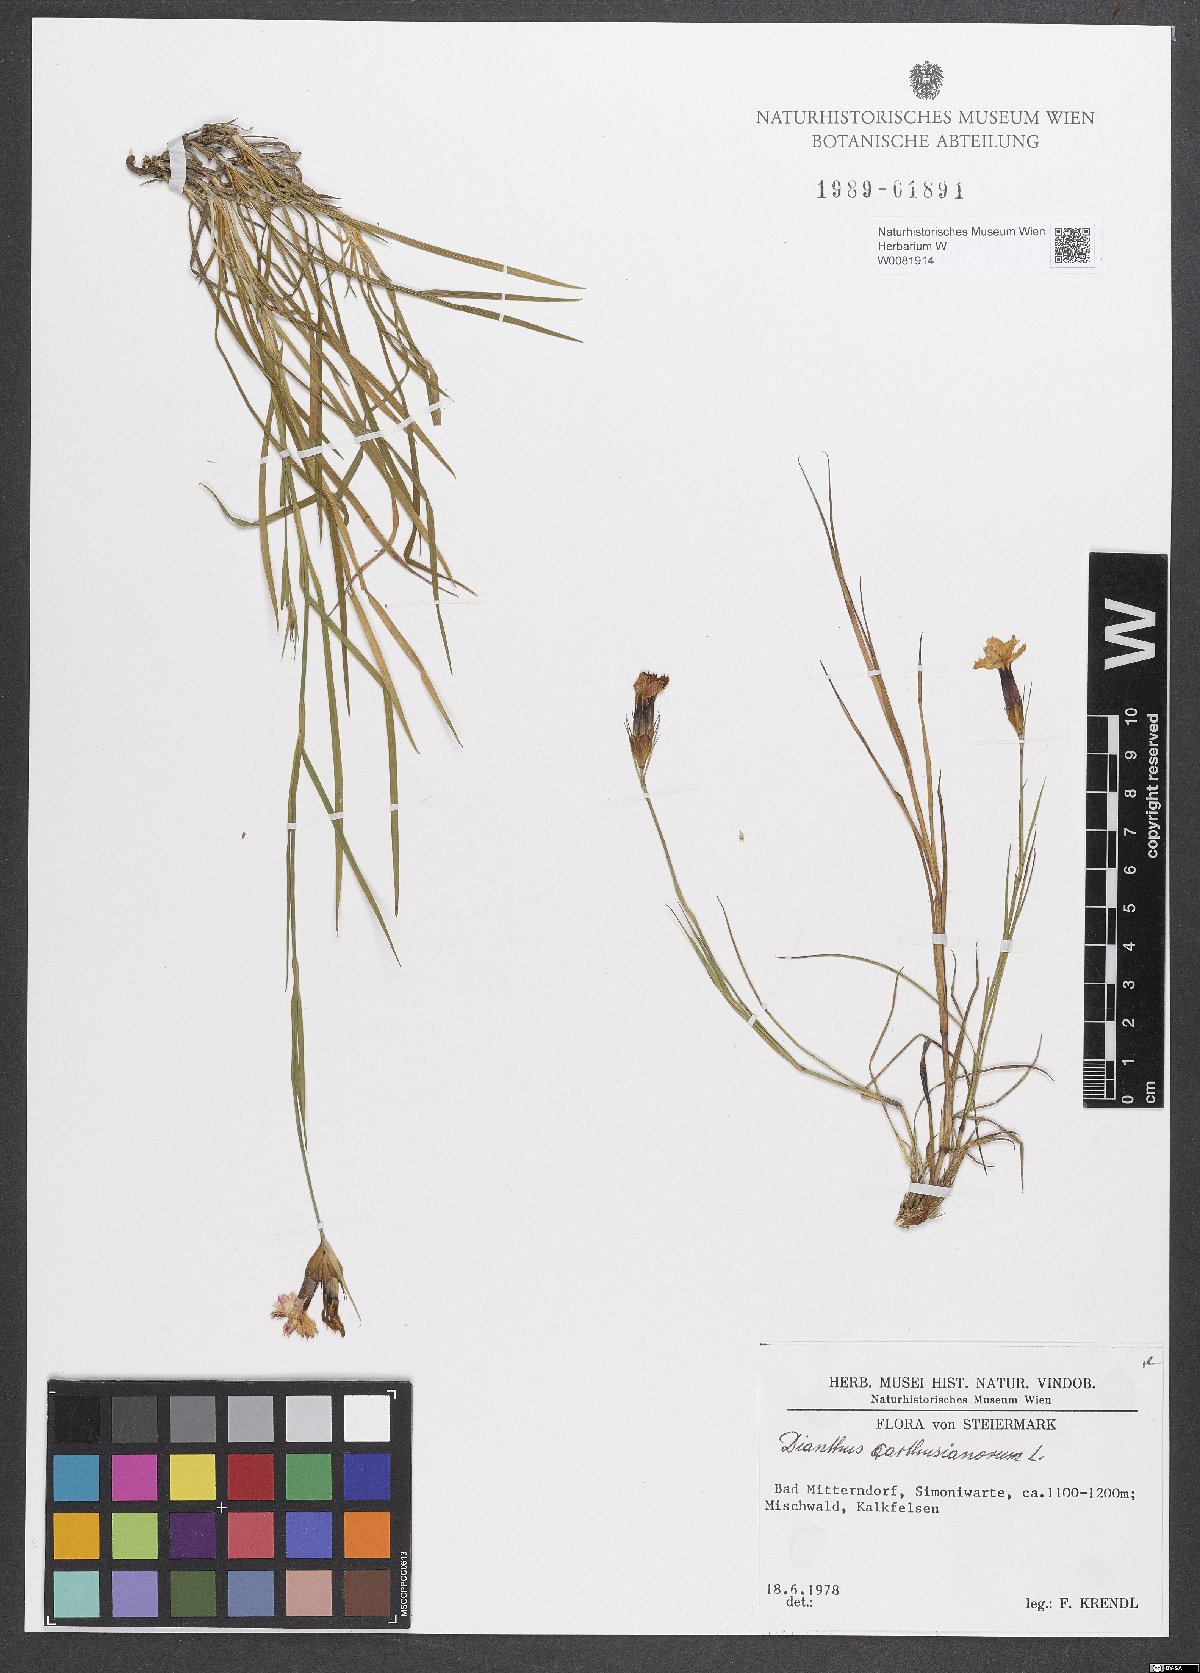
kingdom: Plantae
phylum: Tracheophyta
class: Magnoliopsida
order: Caryophyllales
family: Caryophyllaceae
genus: Dianthus
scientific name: Dianthus carthusianorum
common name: Carthusian pink
